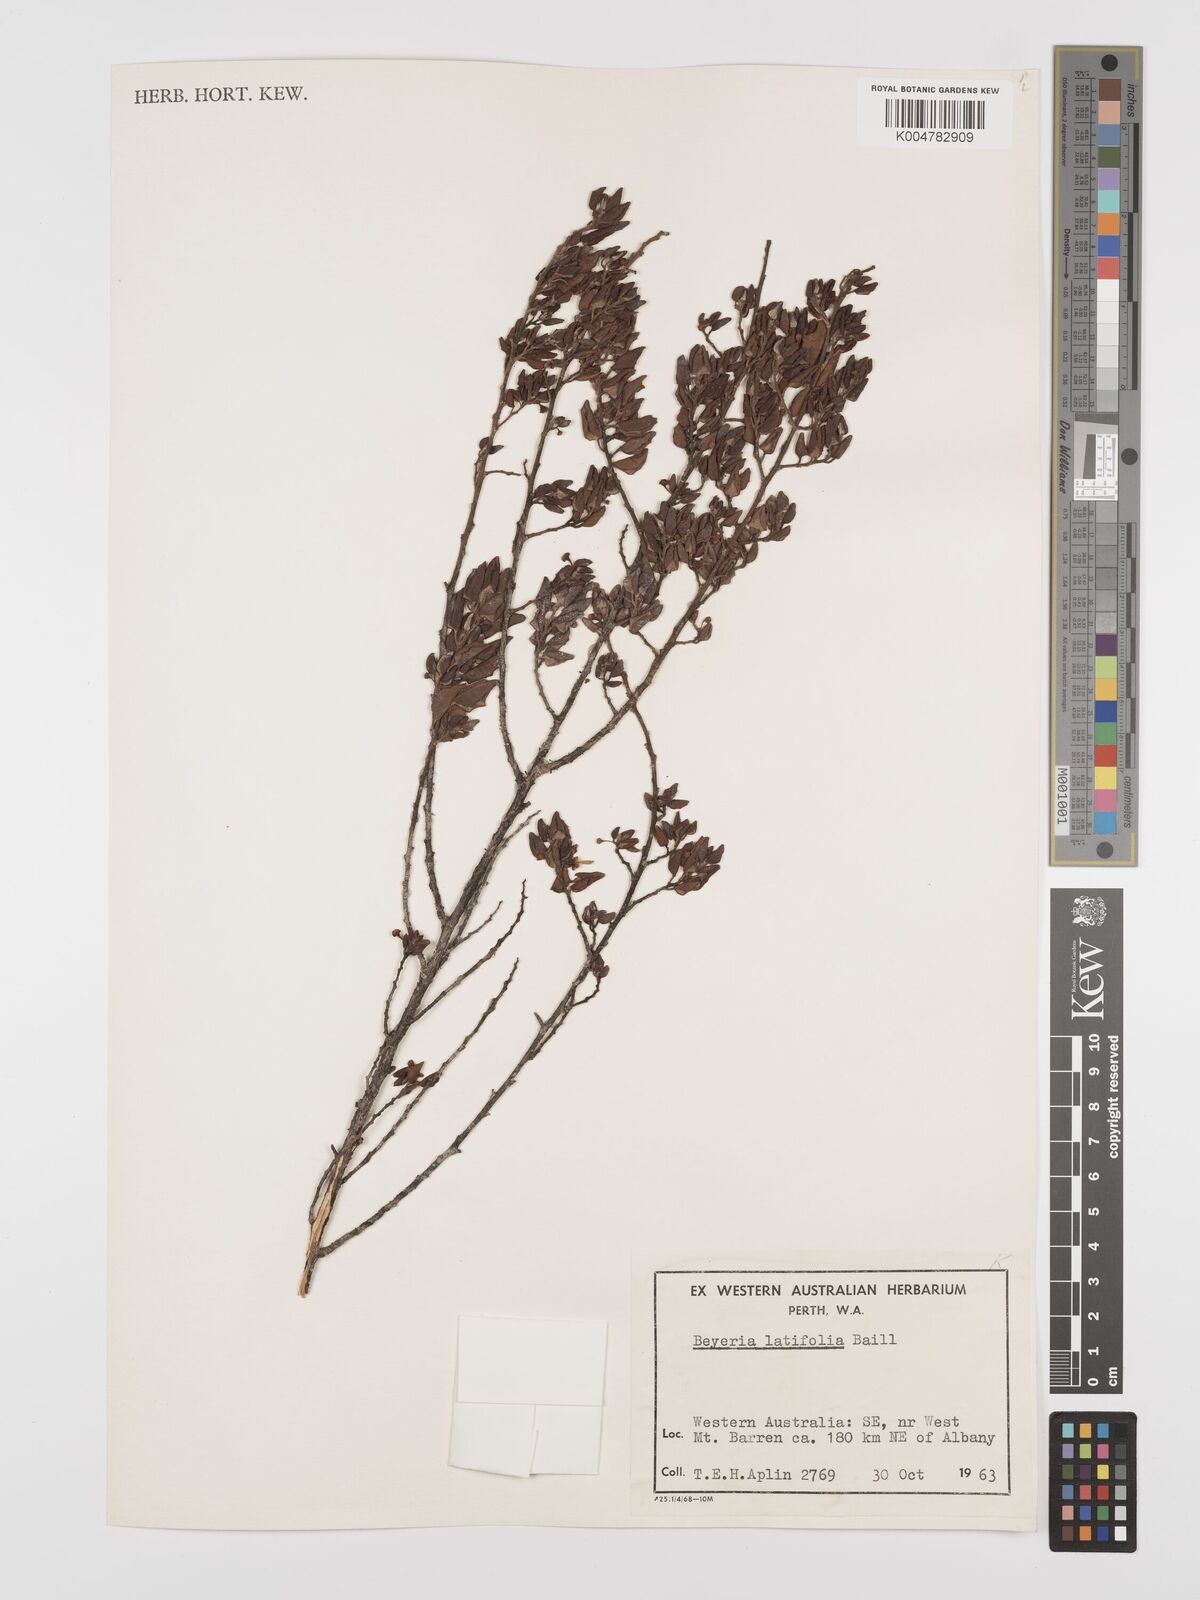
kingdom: Plantae
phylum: Tracheophyta
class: Magnoliopsida
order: Malpighiales
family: Euphorbiaceae
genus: Beyeria
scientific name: Beyeria latifolia
